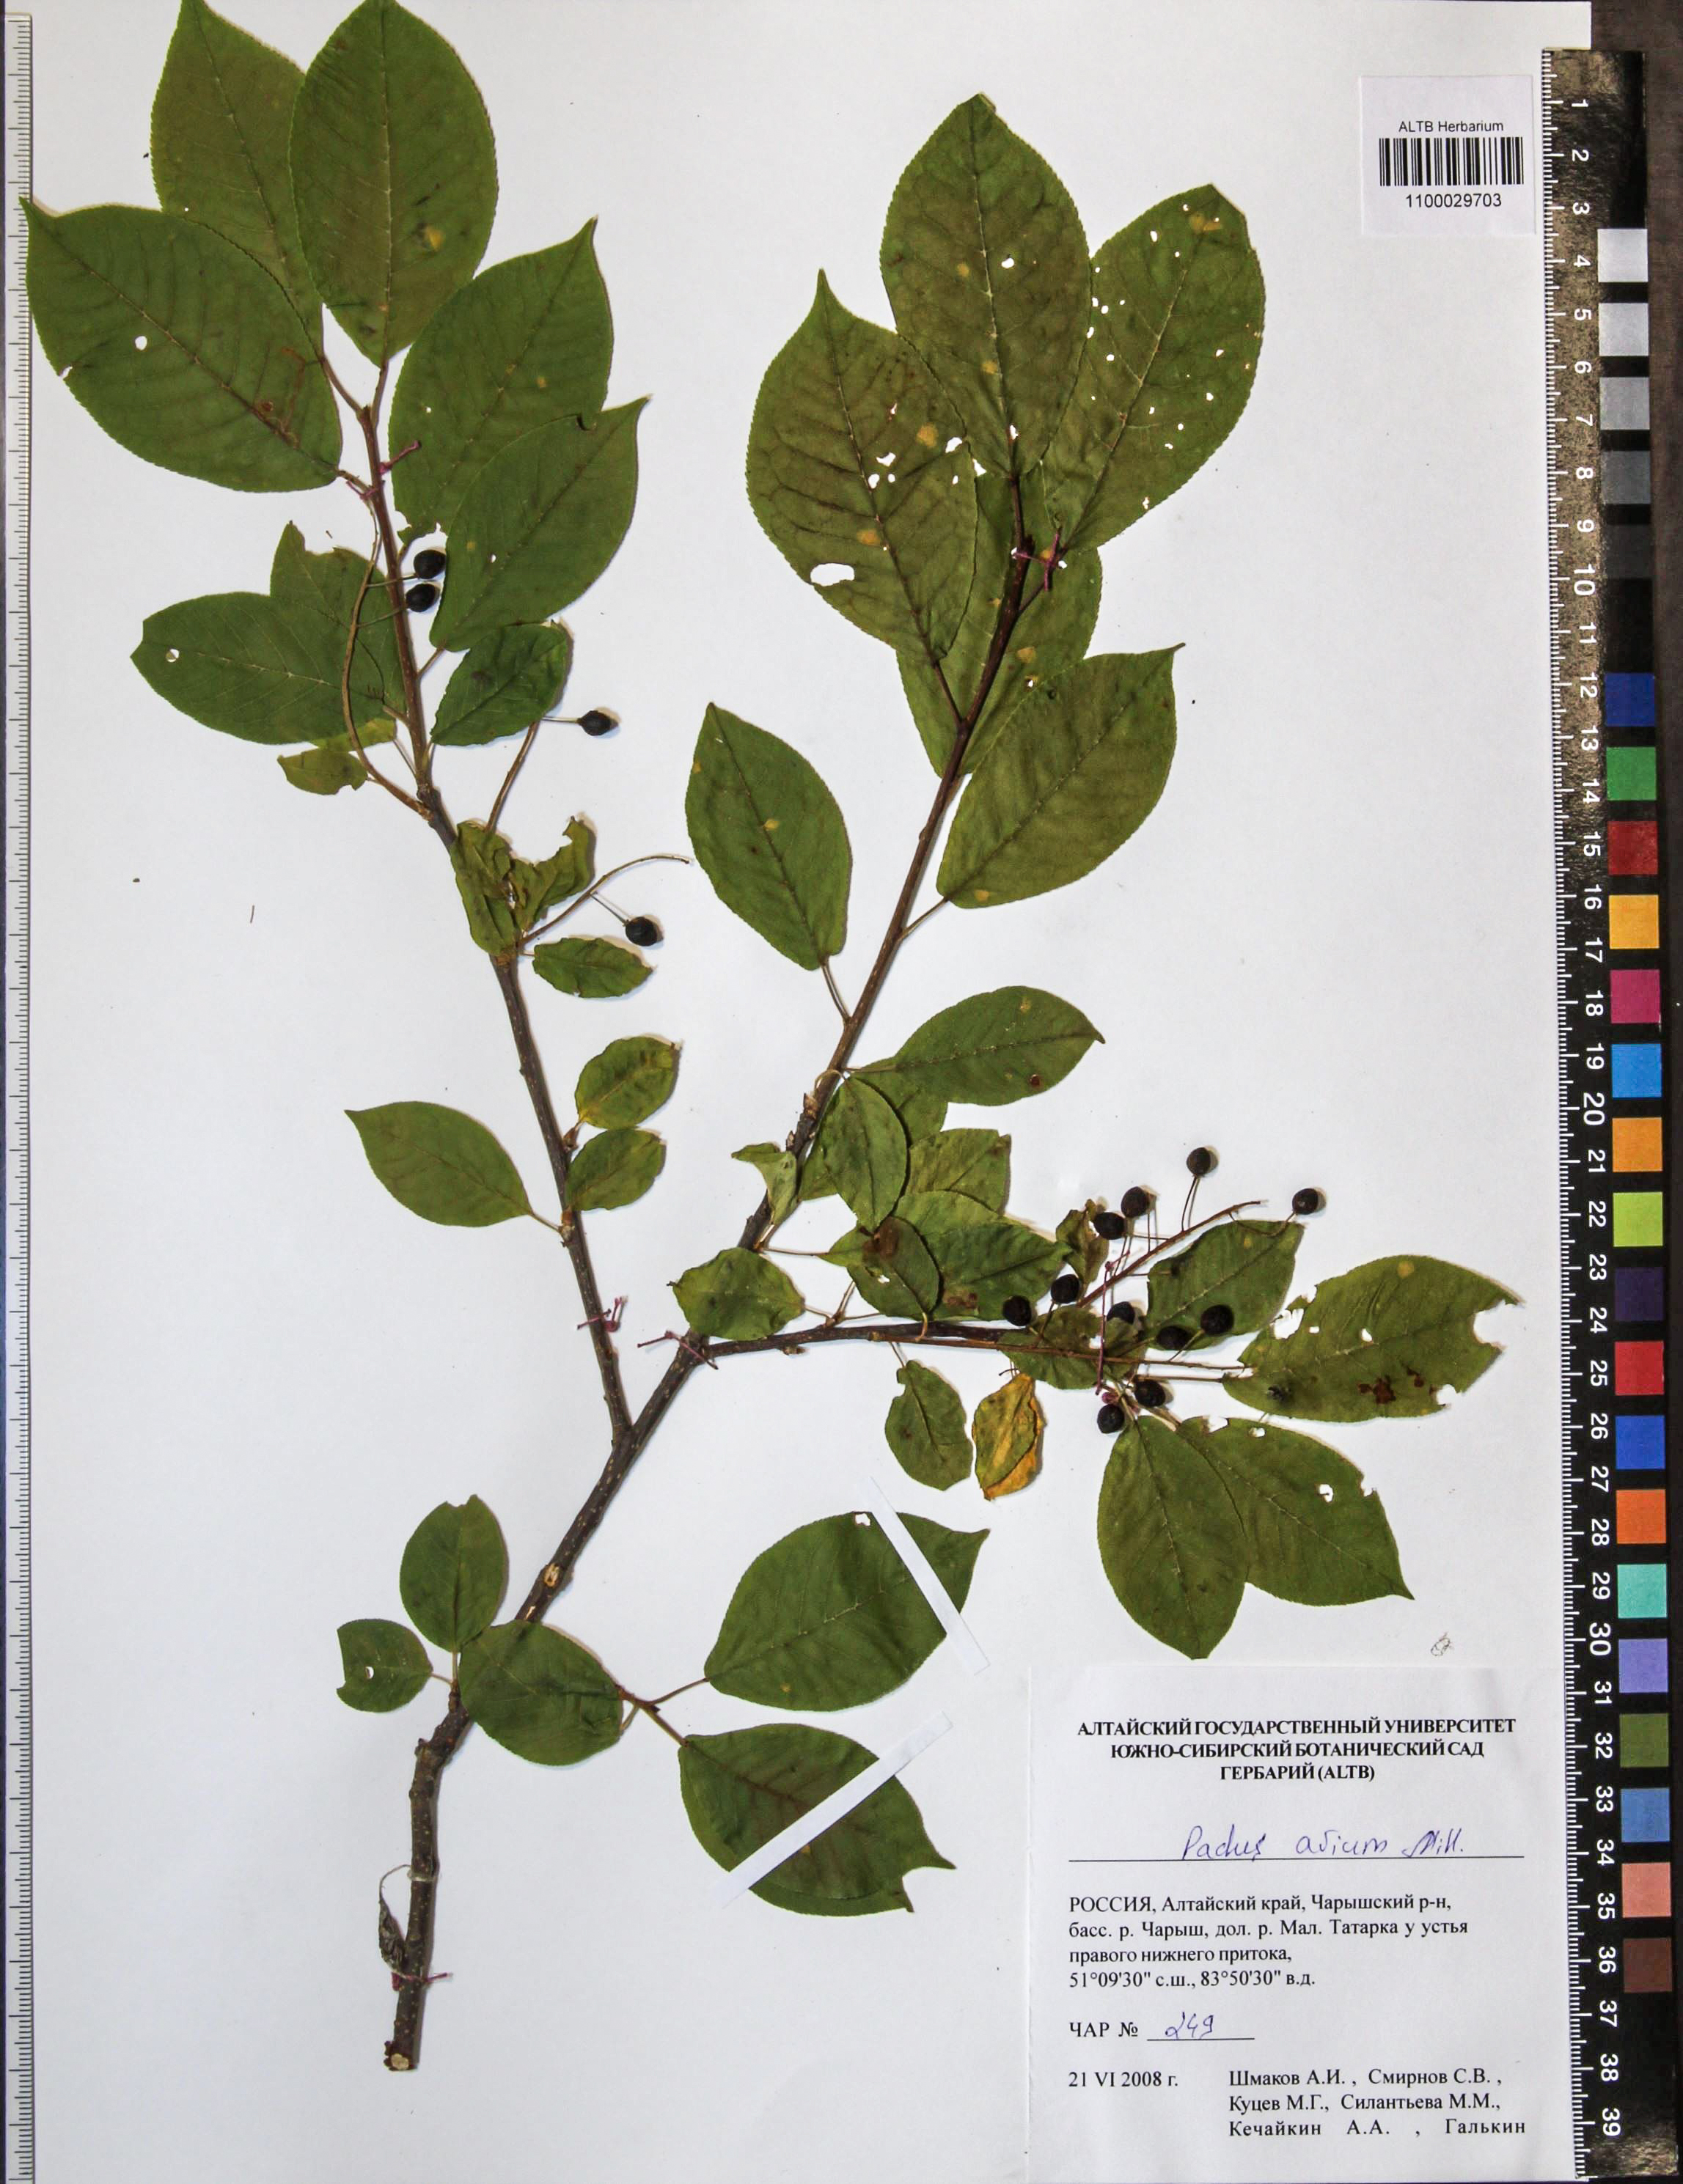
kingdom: Plantae
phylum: Tracheophyta
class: Magnoliopsida
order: Rosales
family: Rosaceae
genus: Prunus
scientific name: Prunus padus
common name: Bird cherry
